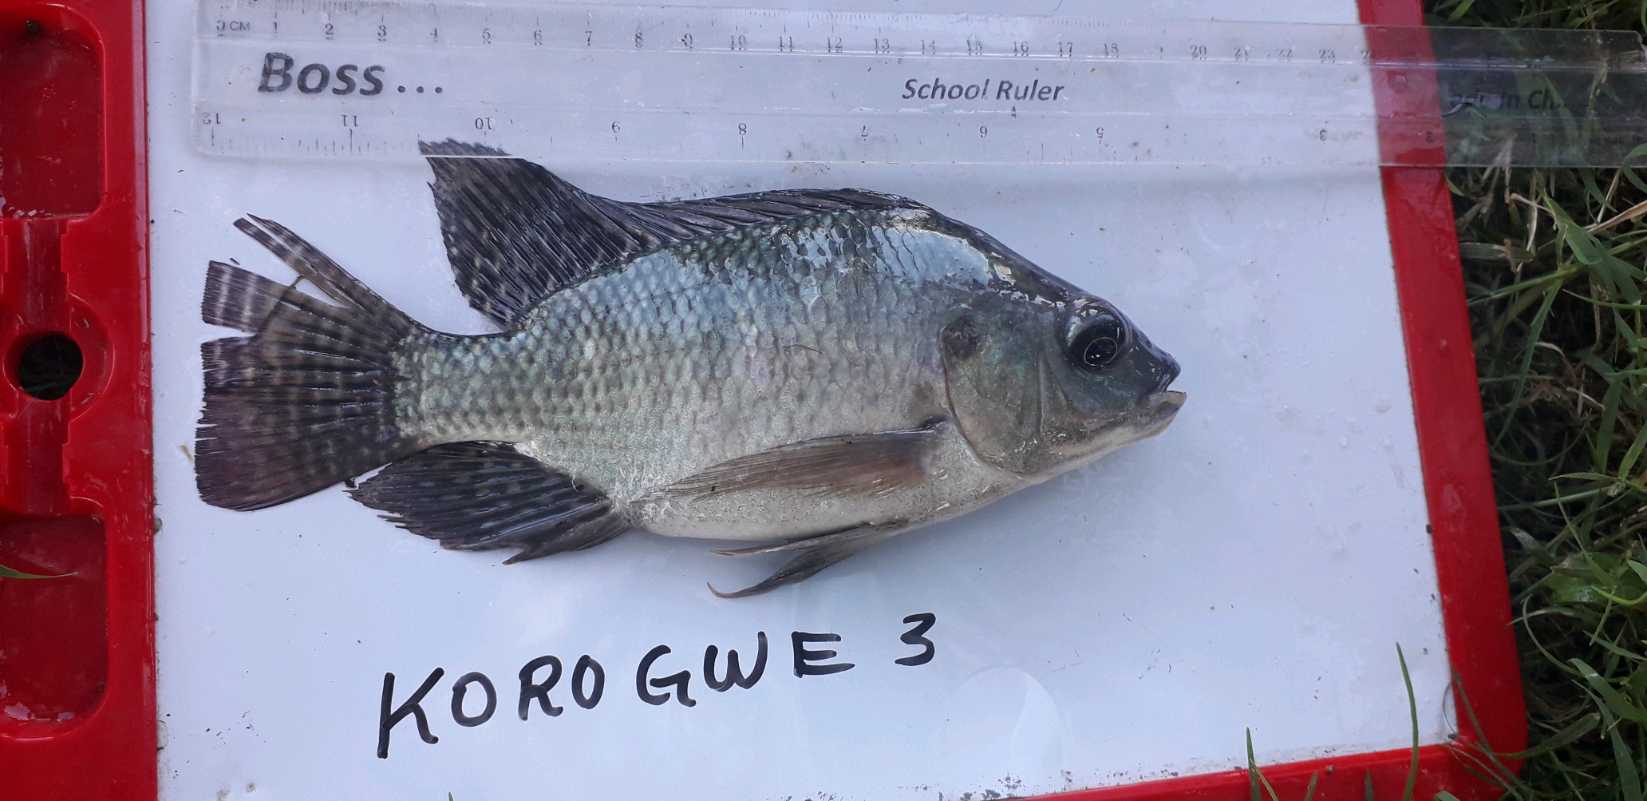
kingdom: Animalia
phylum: Chordata
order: Perciformes
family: Cichlidae
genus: Oreochromis
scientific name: Oreochromis niloticus
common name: Nile tilapia
